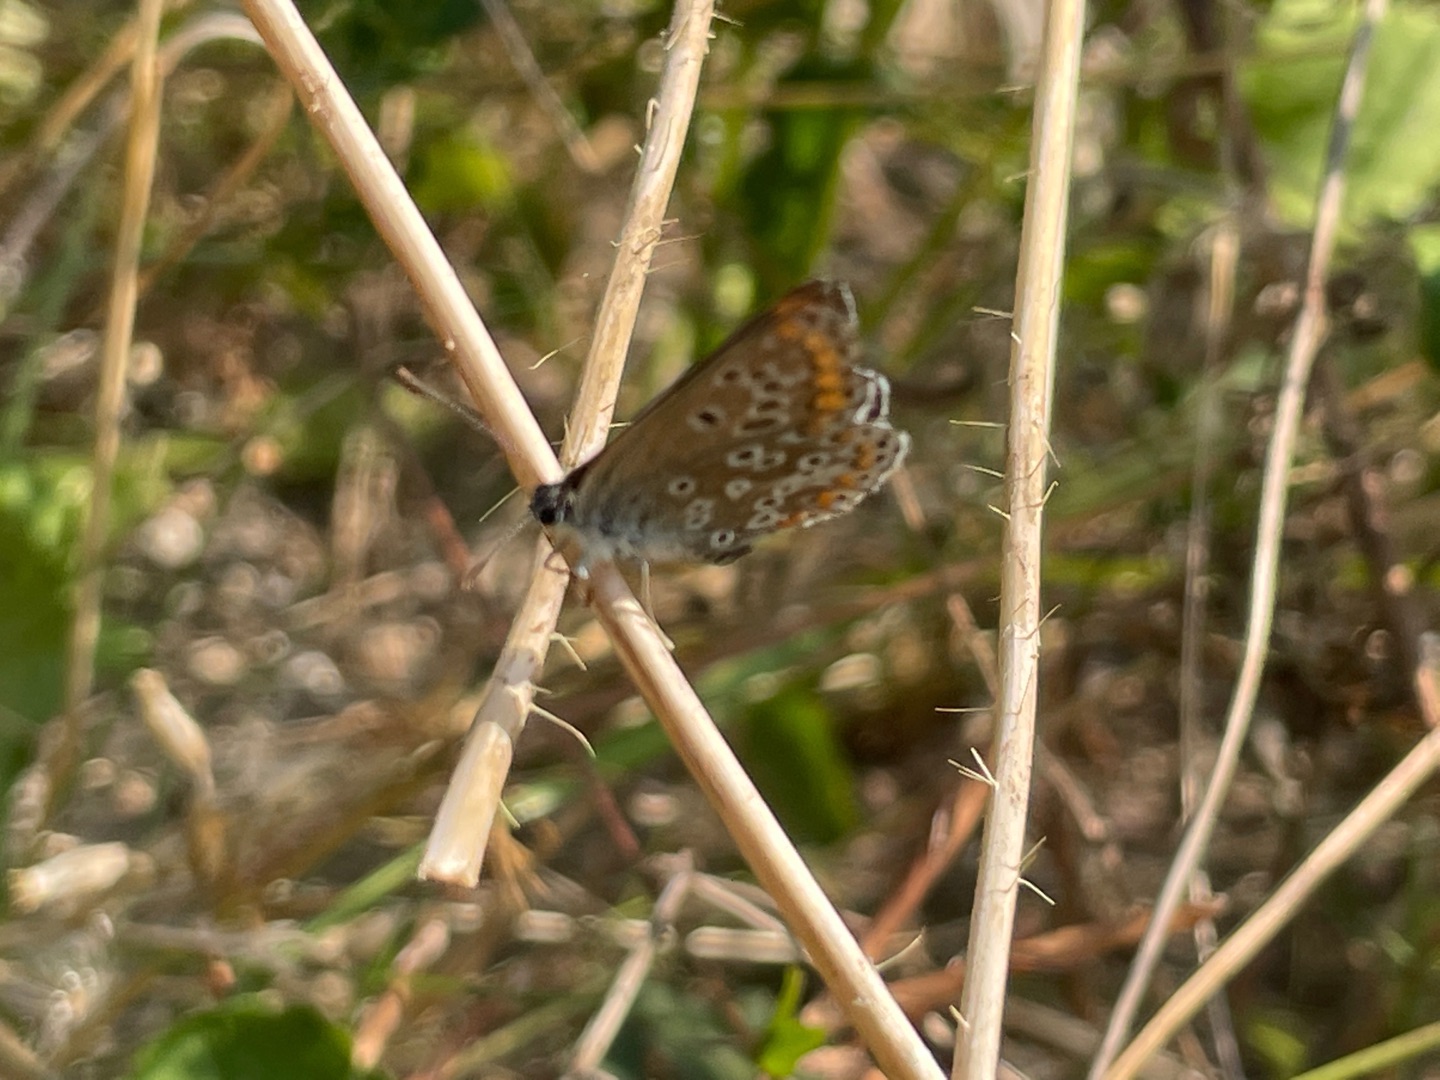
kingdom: Animalia
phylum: Arthropoda
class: Insecta
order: Lepidoptera
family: Lycaenidae
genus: Aricia
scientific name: Aricia agestis
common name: Rødplettet blåfugl
